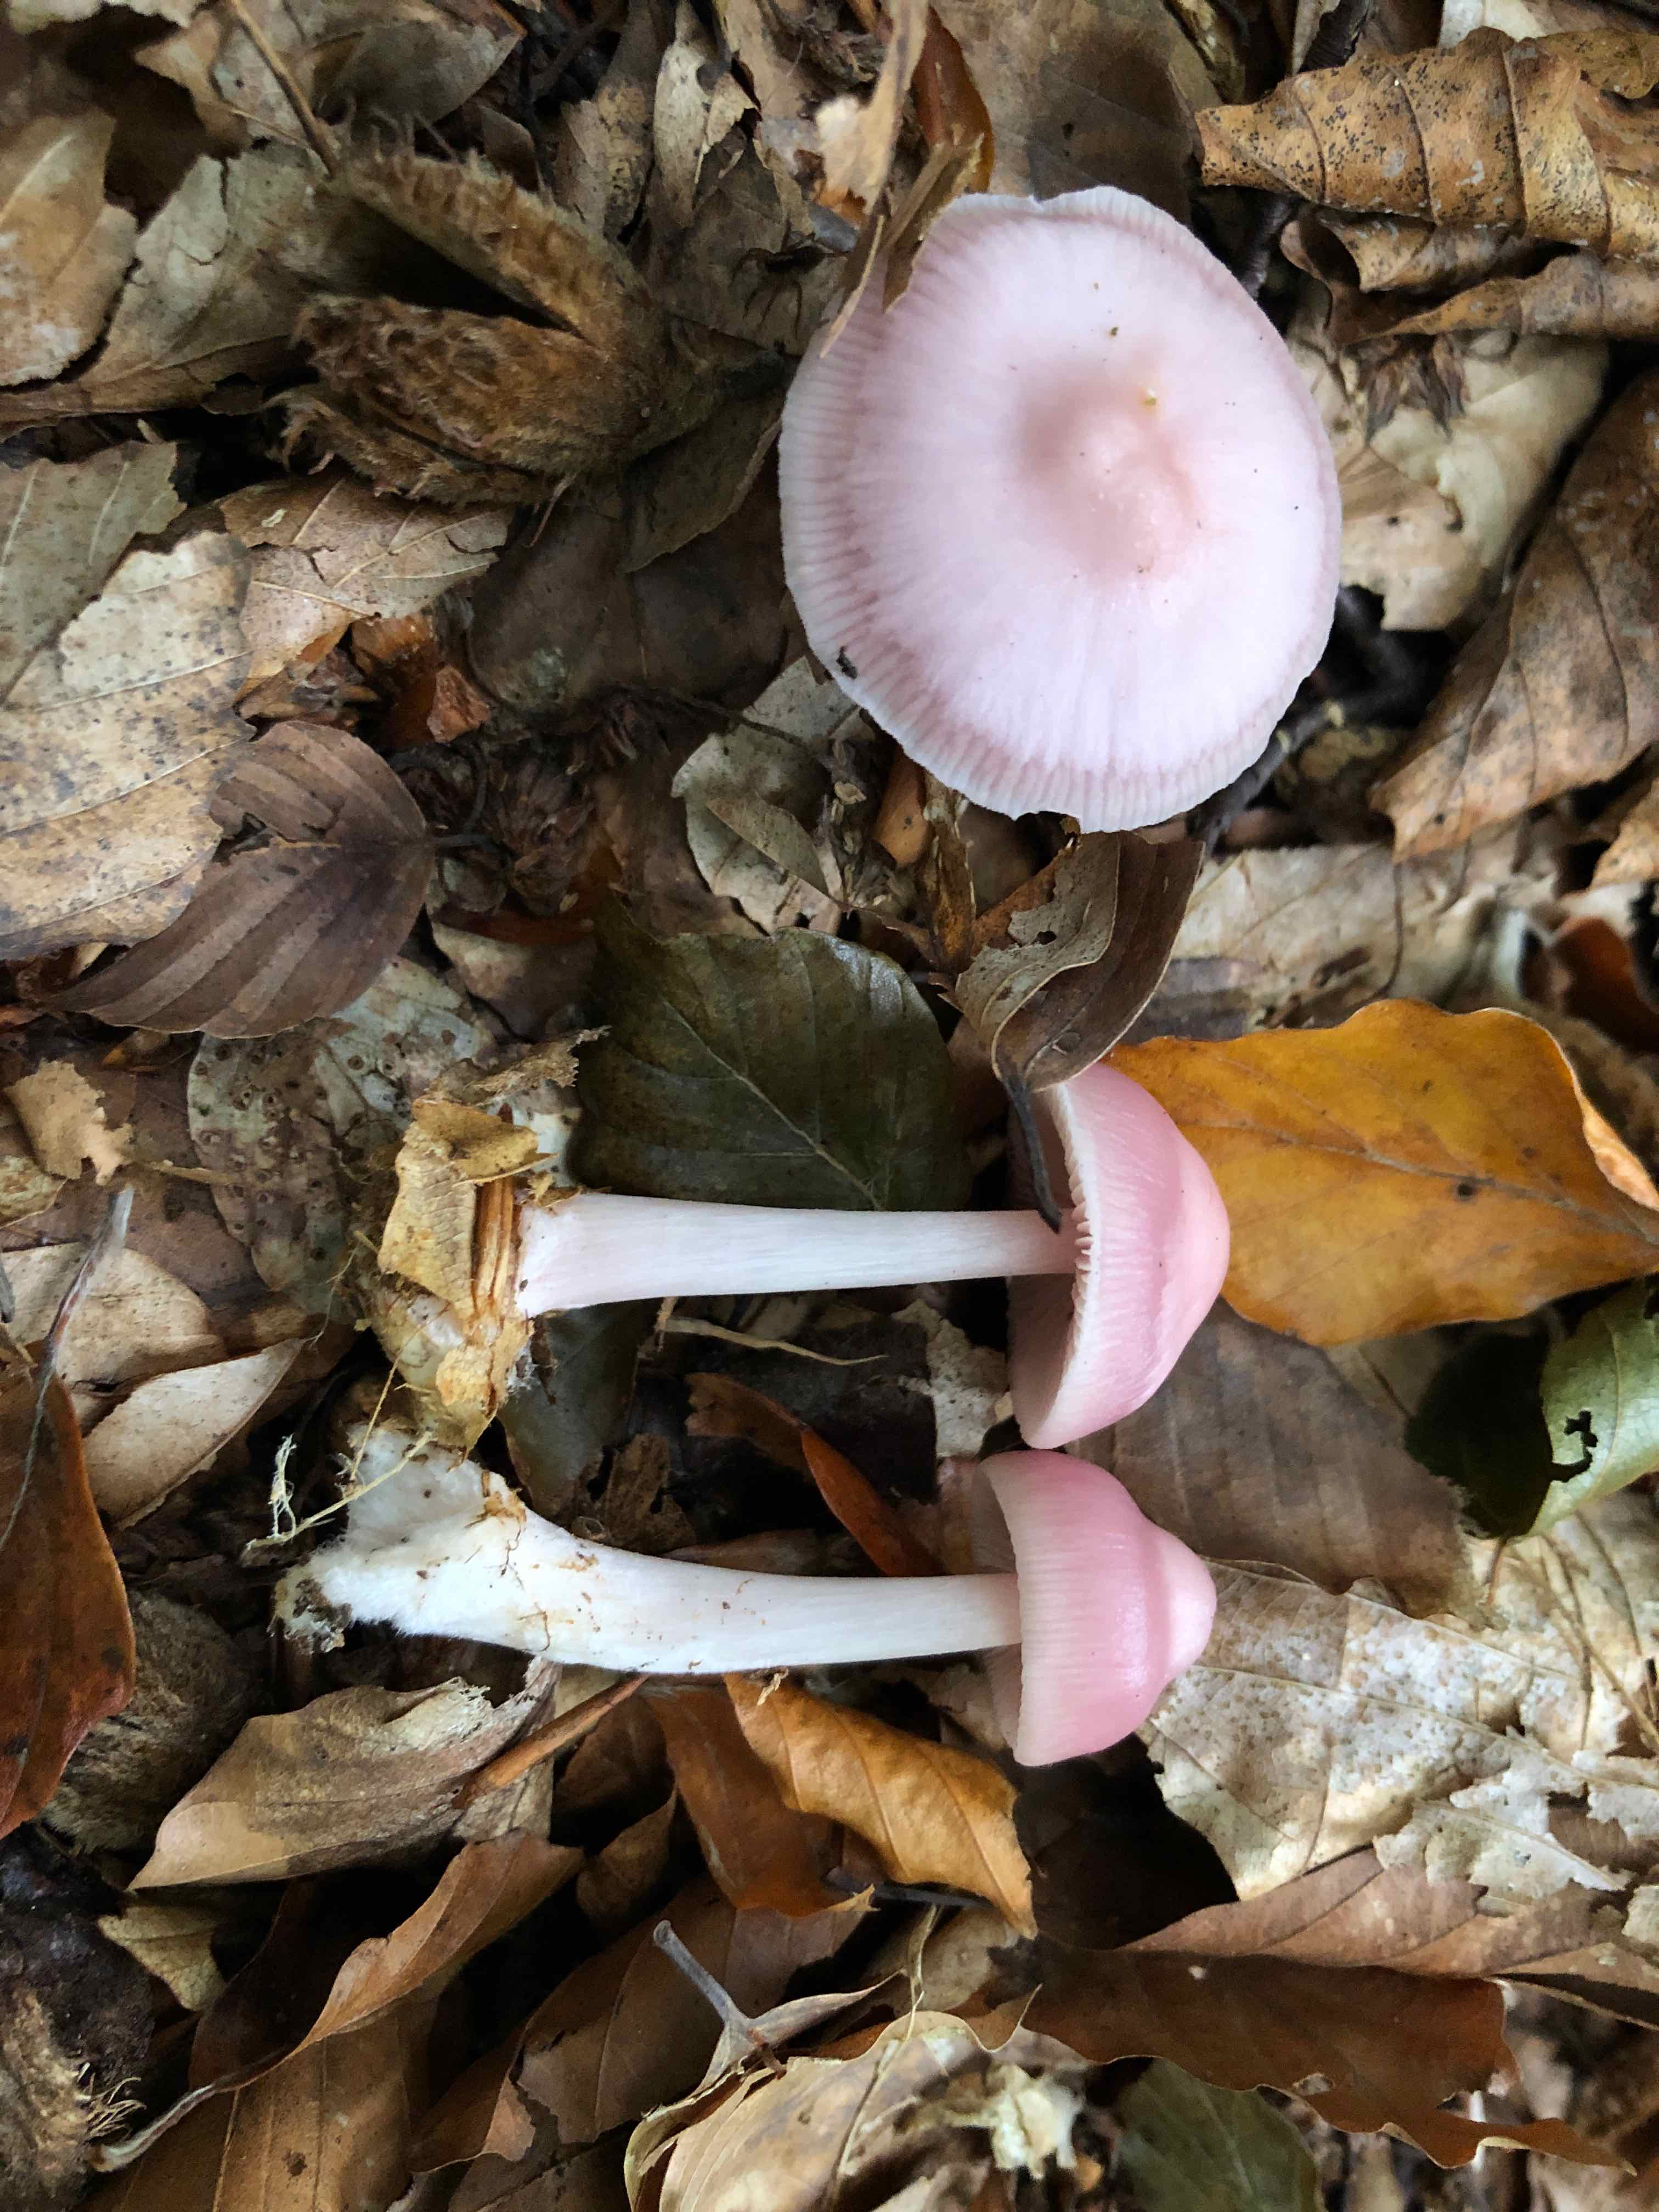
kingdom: Fungi
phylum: Basidiomycota
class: Agaricomycetes
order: Agaricales
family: Mycenaceae
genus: Mycena
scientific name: Mycena rosea
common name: rosa huesvamp
